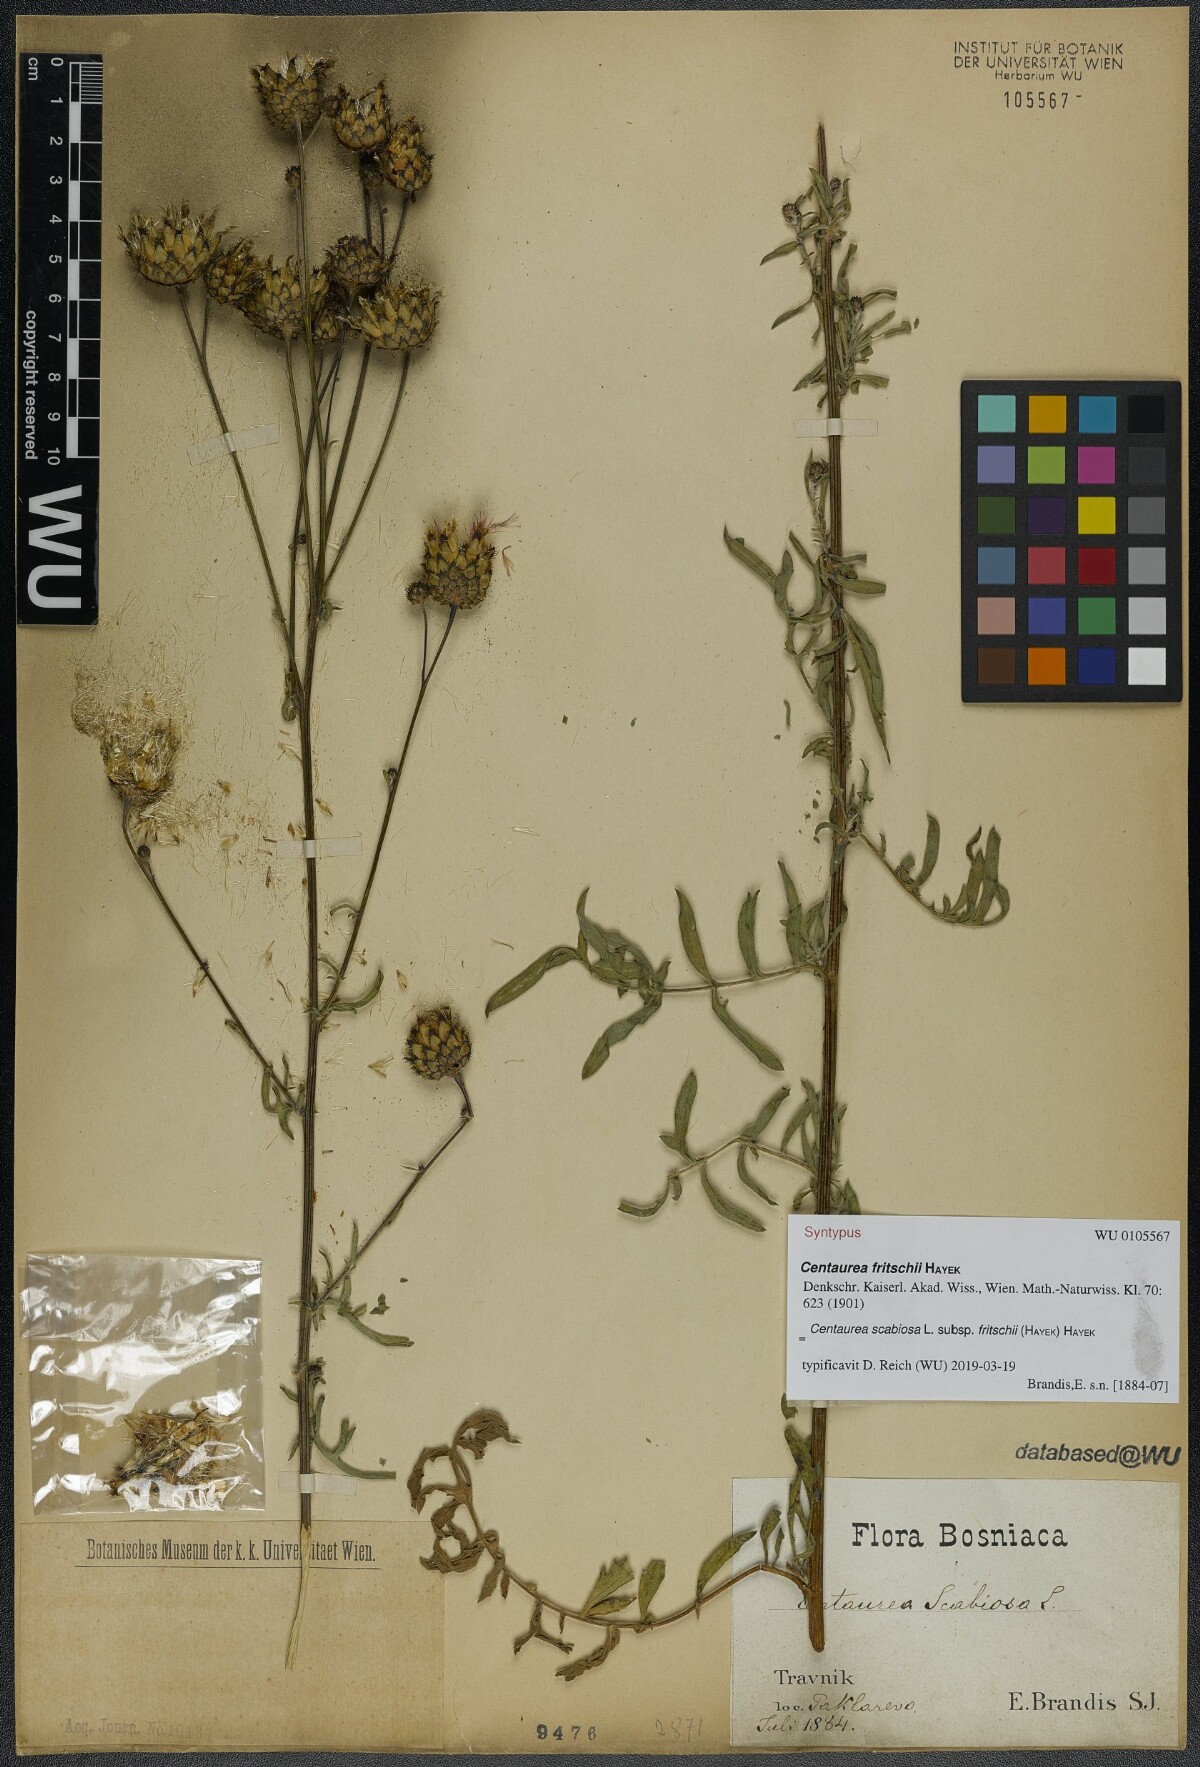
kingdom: Plantae
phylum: Tracheophyta
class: Magnoliopsida
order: Asterales
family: Asteraceae
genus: Centaurea
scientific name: Centaurea scabiosa
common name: Greater knapweed
